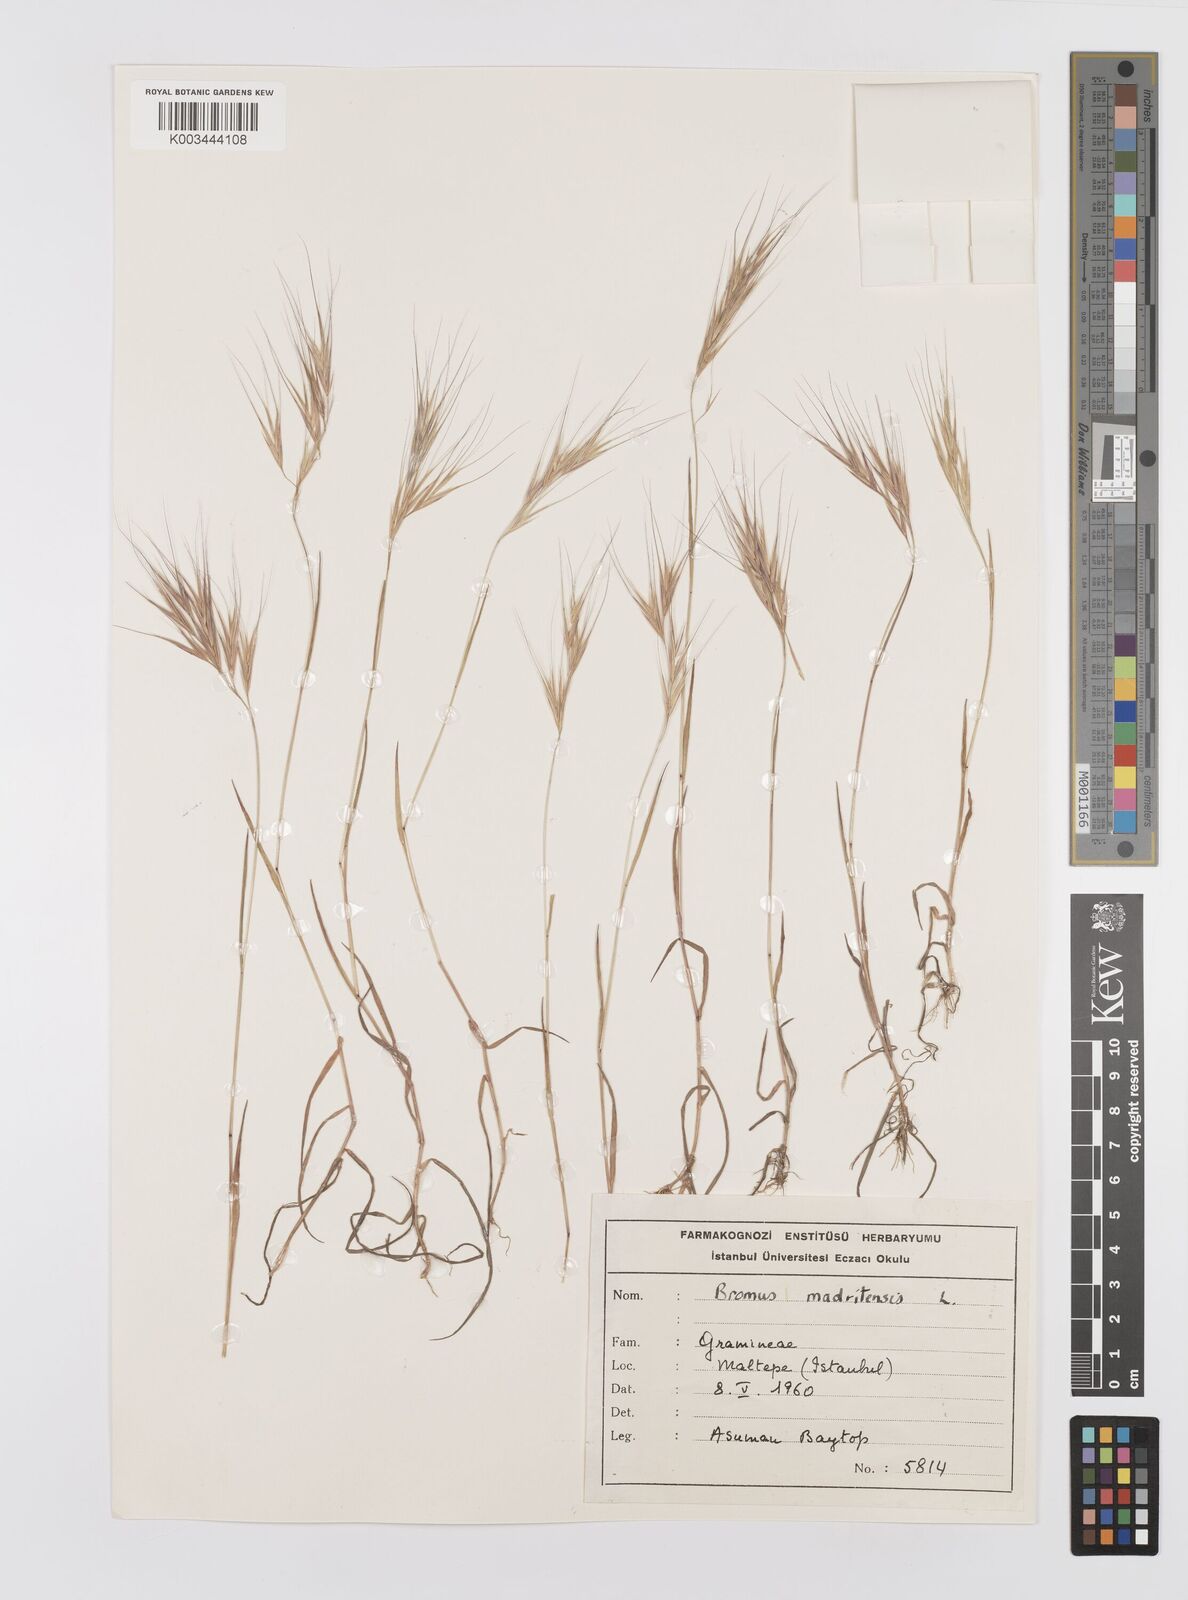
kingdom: Plantae
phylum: Tracheophyta
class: Liliopsida
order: Poales
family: Poaceae
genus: Bromus
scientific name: Bromus madritensis
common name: Compact brome
